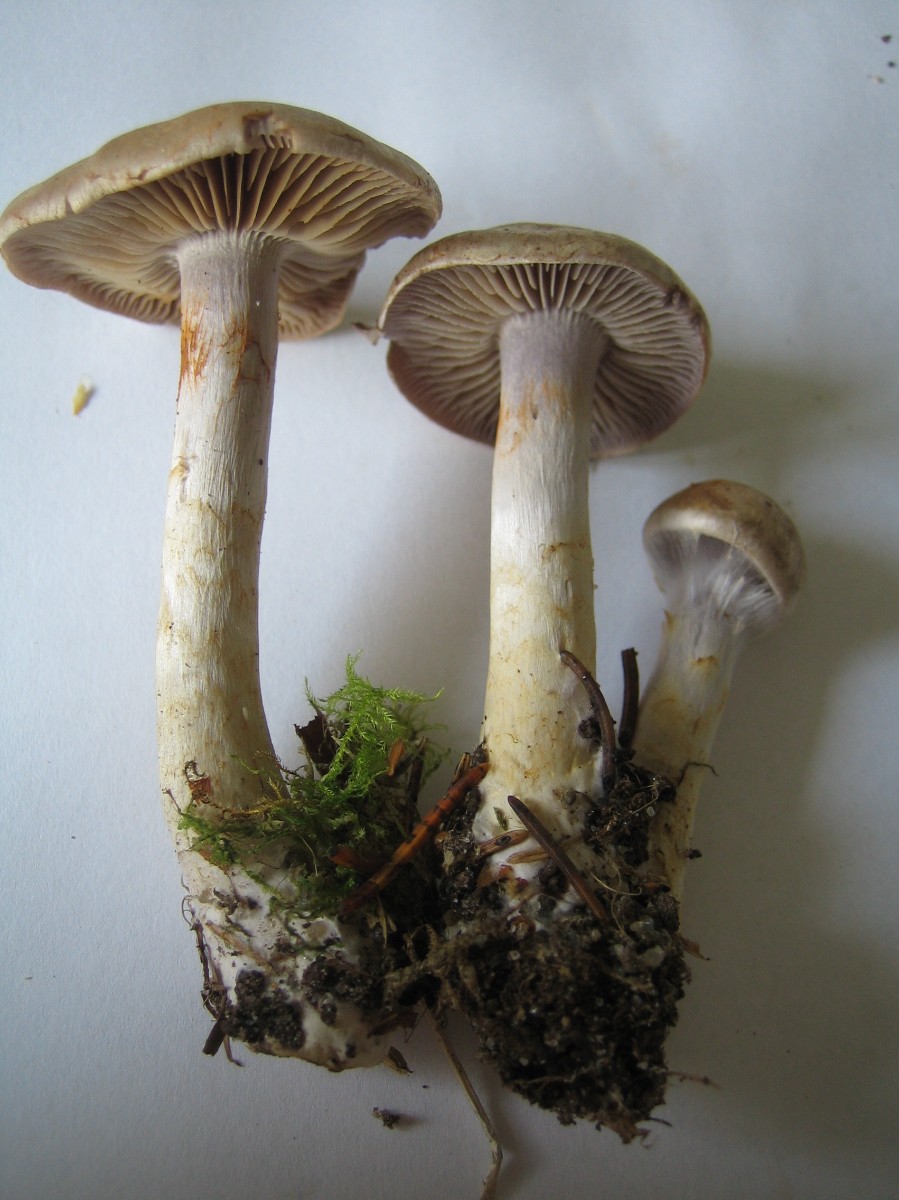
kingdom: Fungi
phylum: Basidiomycota
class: Agaricomycetes
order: Agaricales
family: Cortinariaceae
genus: Cortinarius
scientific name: Cortinarius
